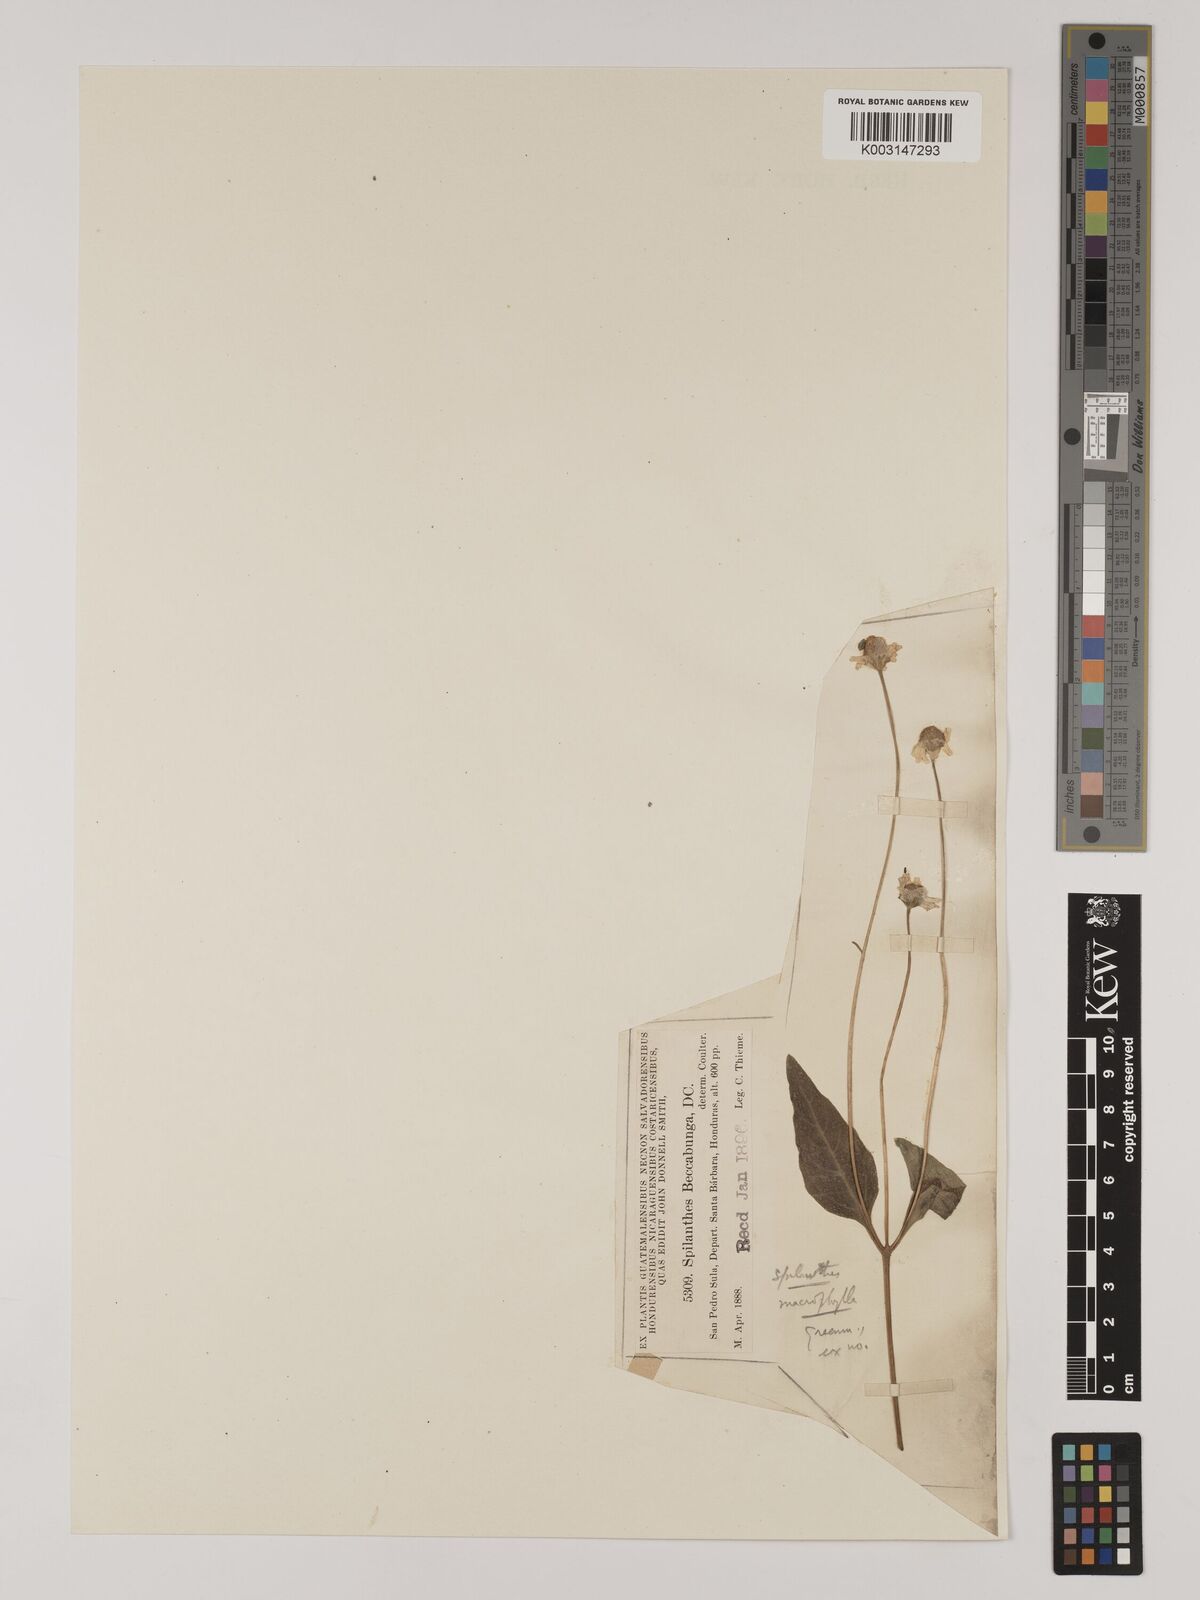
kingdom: Plantae
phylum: Tracheophyta
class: Magnoliopsida
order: Asterales
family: Asteraceae
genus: Acmella
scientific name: Acmella papposa
